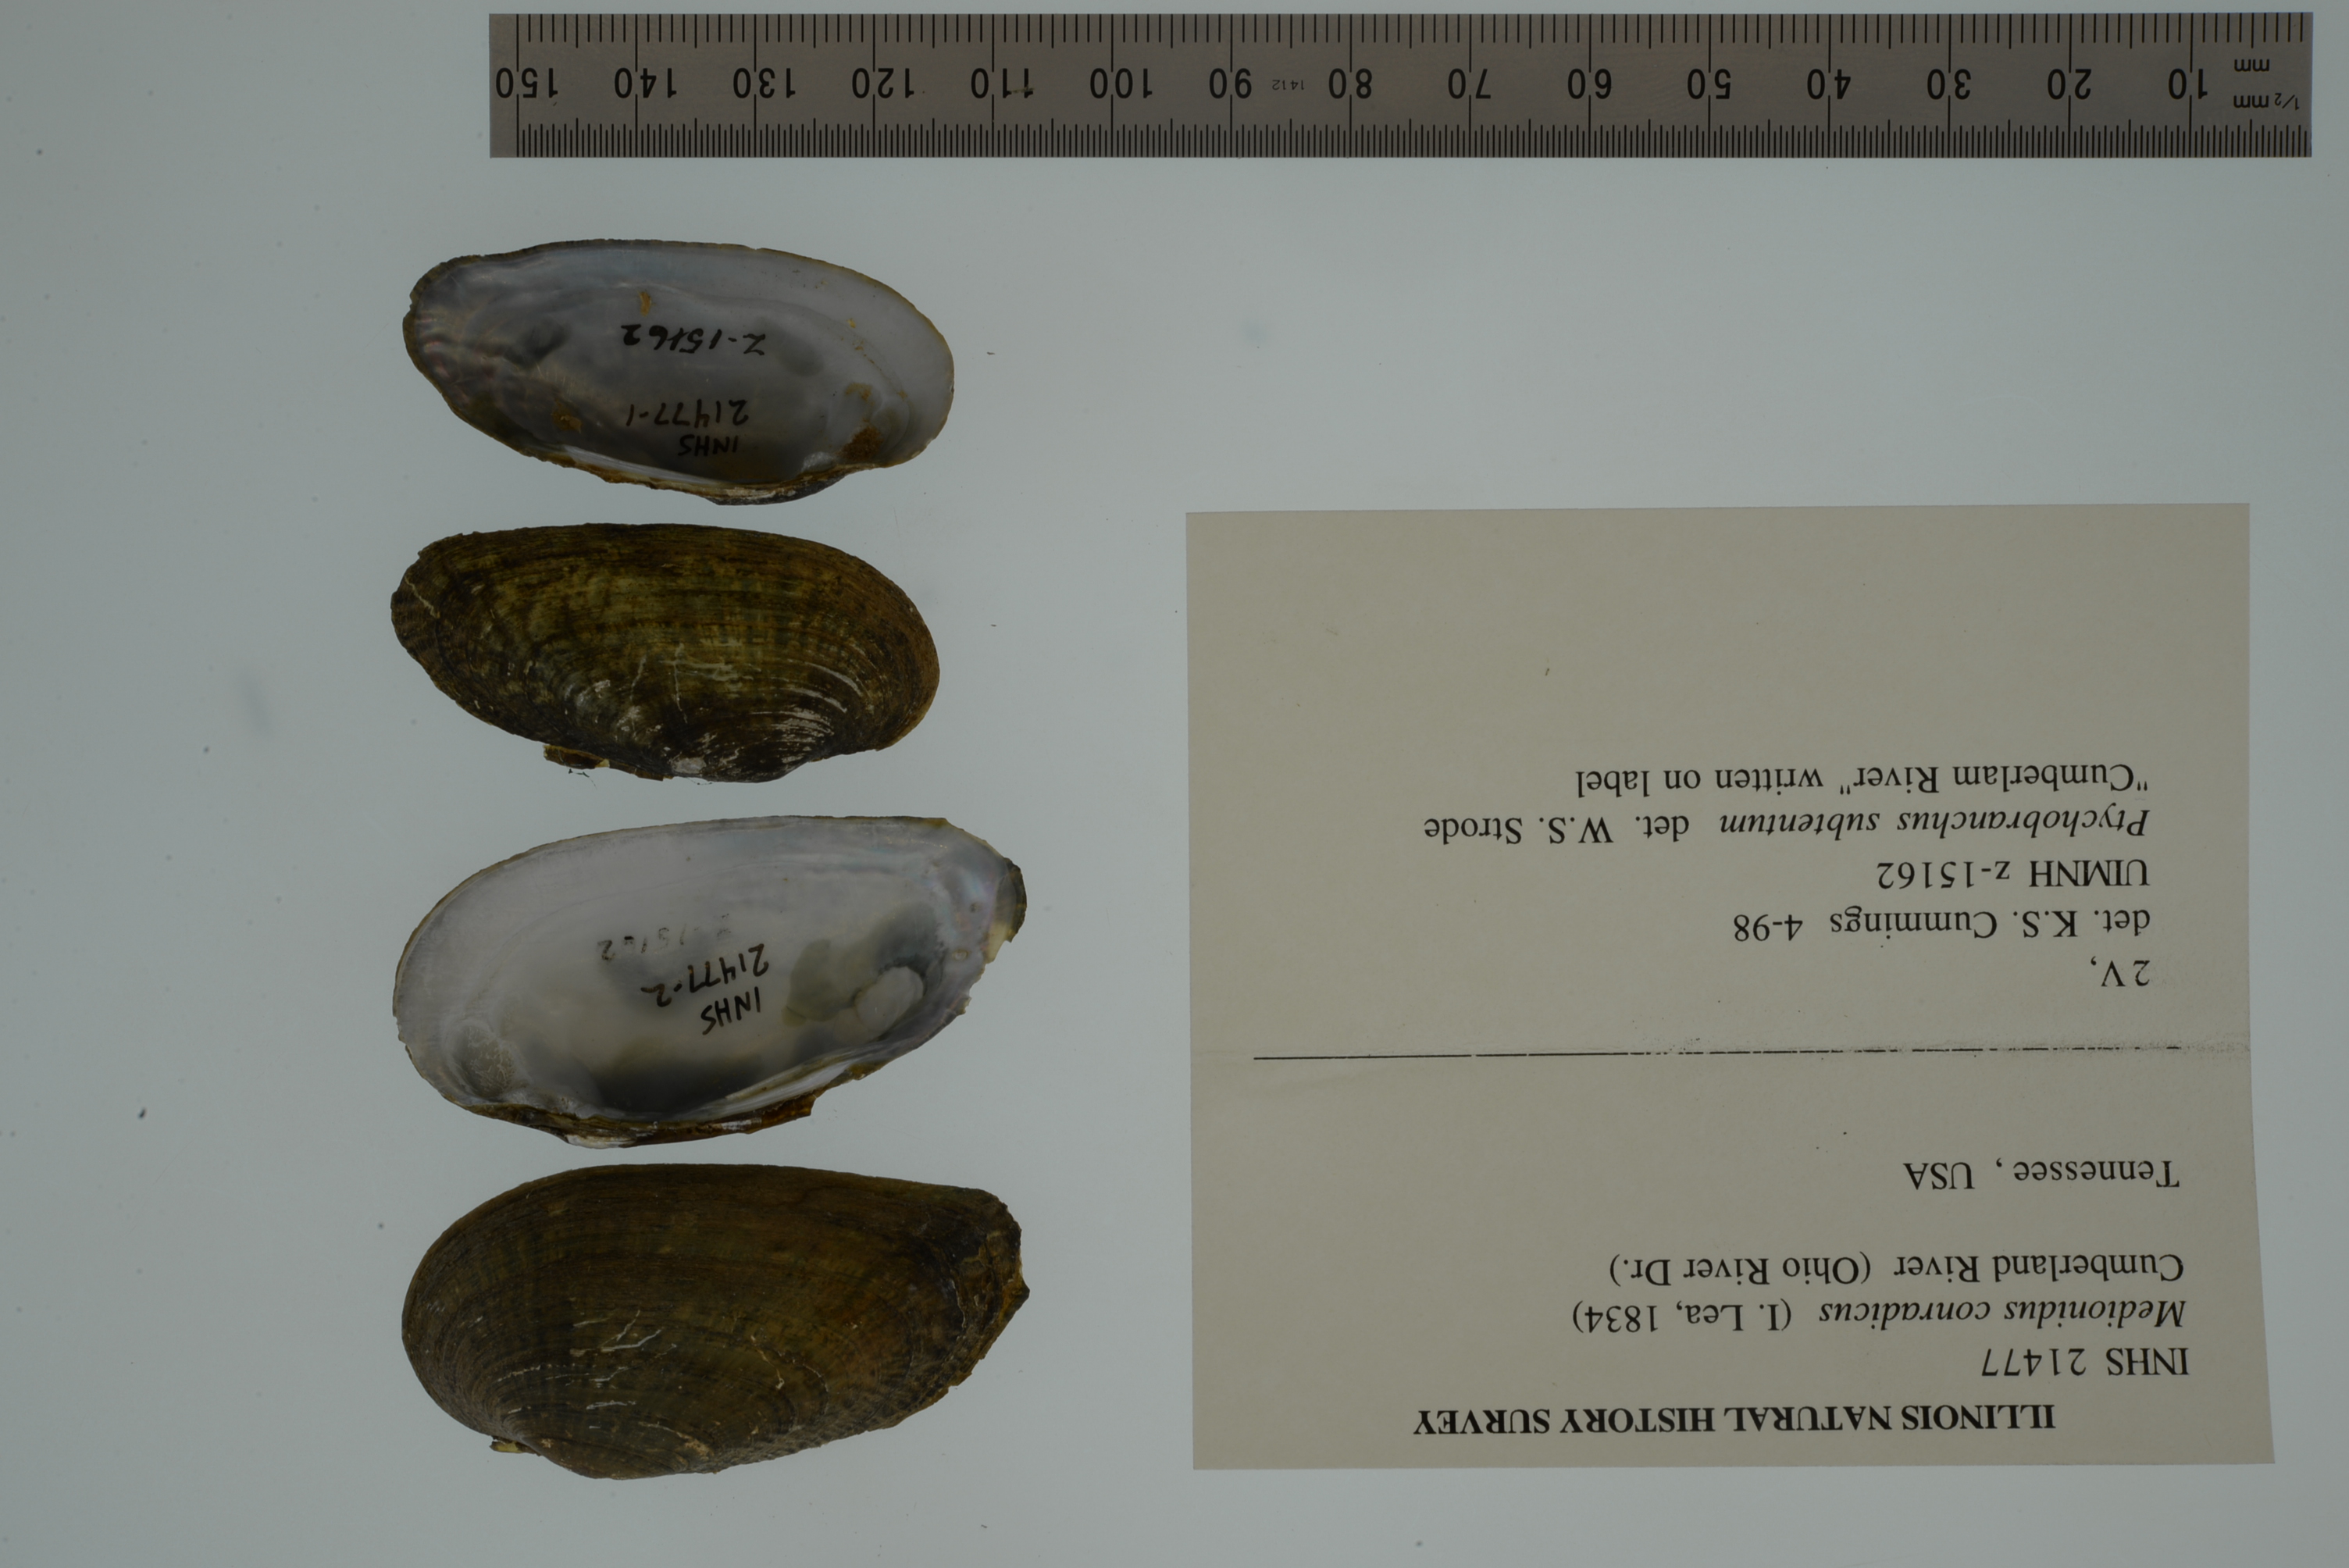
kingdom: Animalia
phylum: Mollusca
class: Bivalvia
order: Unionida
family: Unionidae
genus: Medionidus
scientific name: Medionidus conradicus
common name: Cumberland mocassinshell
